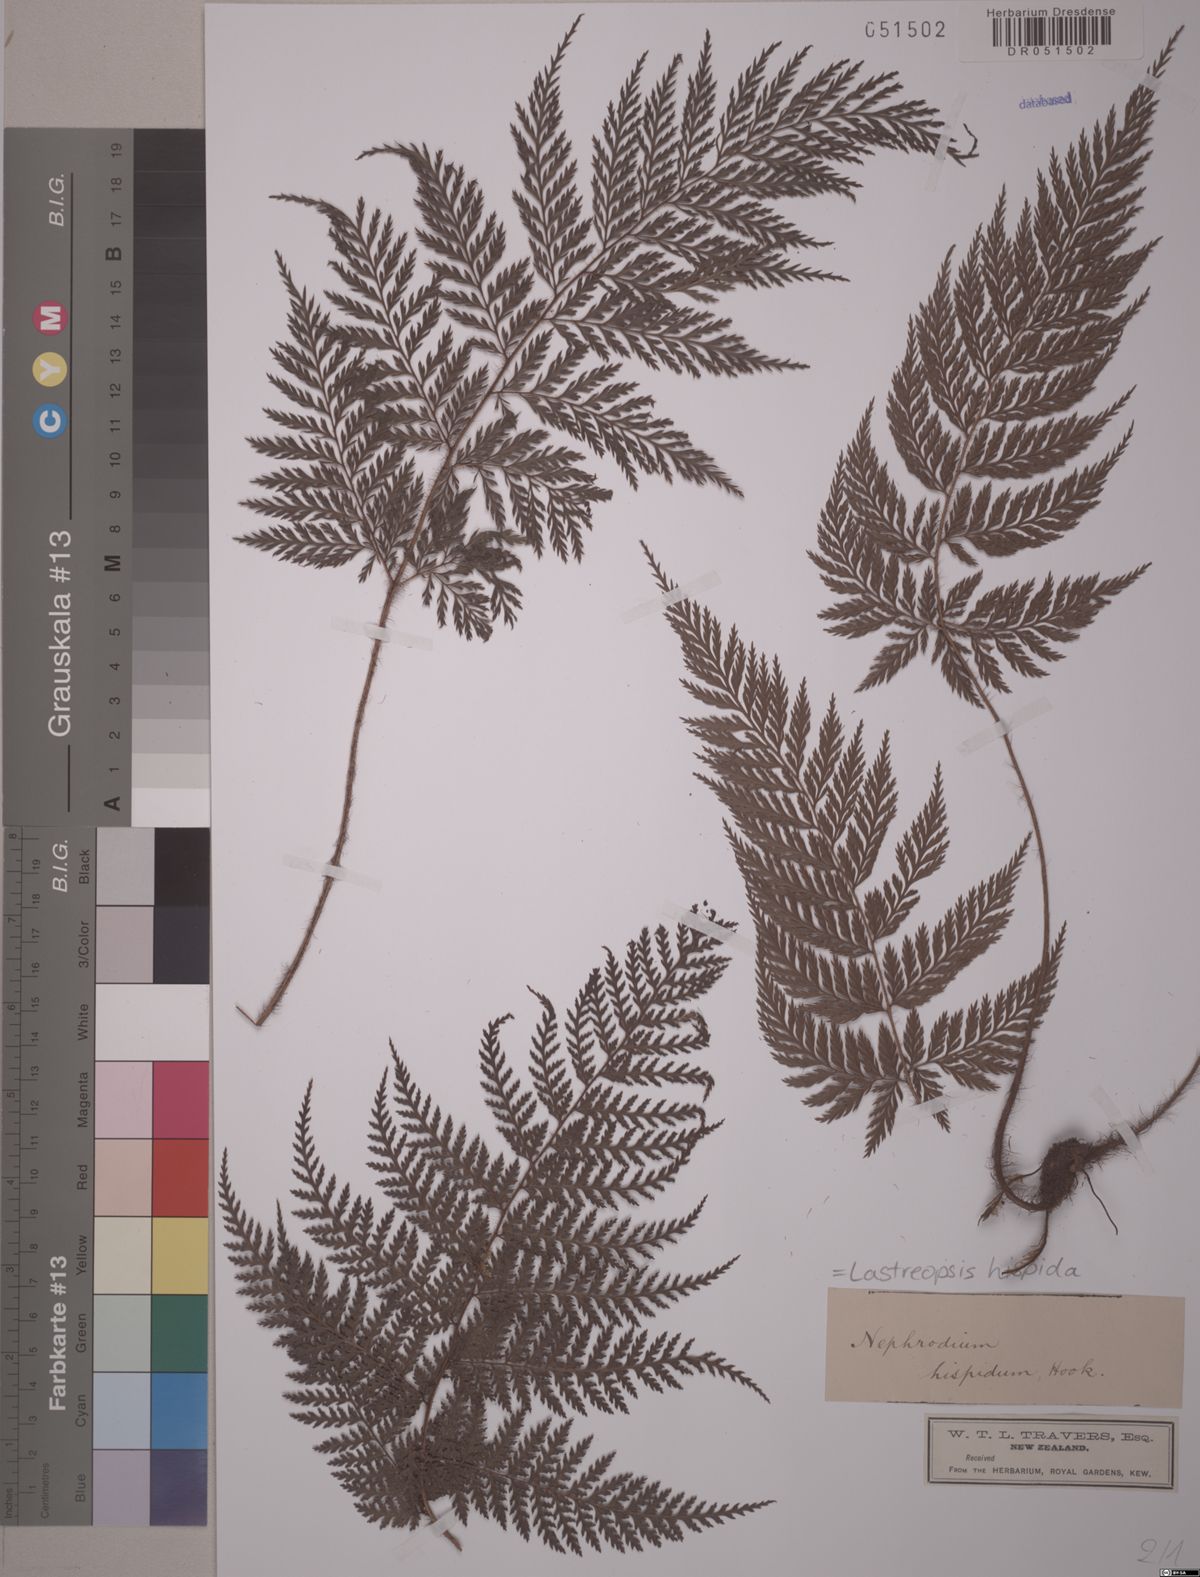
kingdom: Plantae
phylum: Tracheophyta
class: Polypodiopsida
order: Polypodiales
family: Dryopteridaceae
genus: Lastreopsis
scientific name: Lastreopsis hispida
